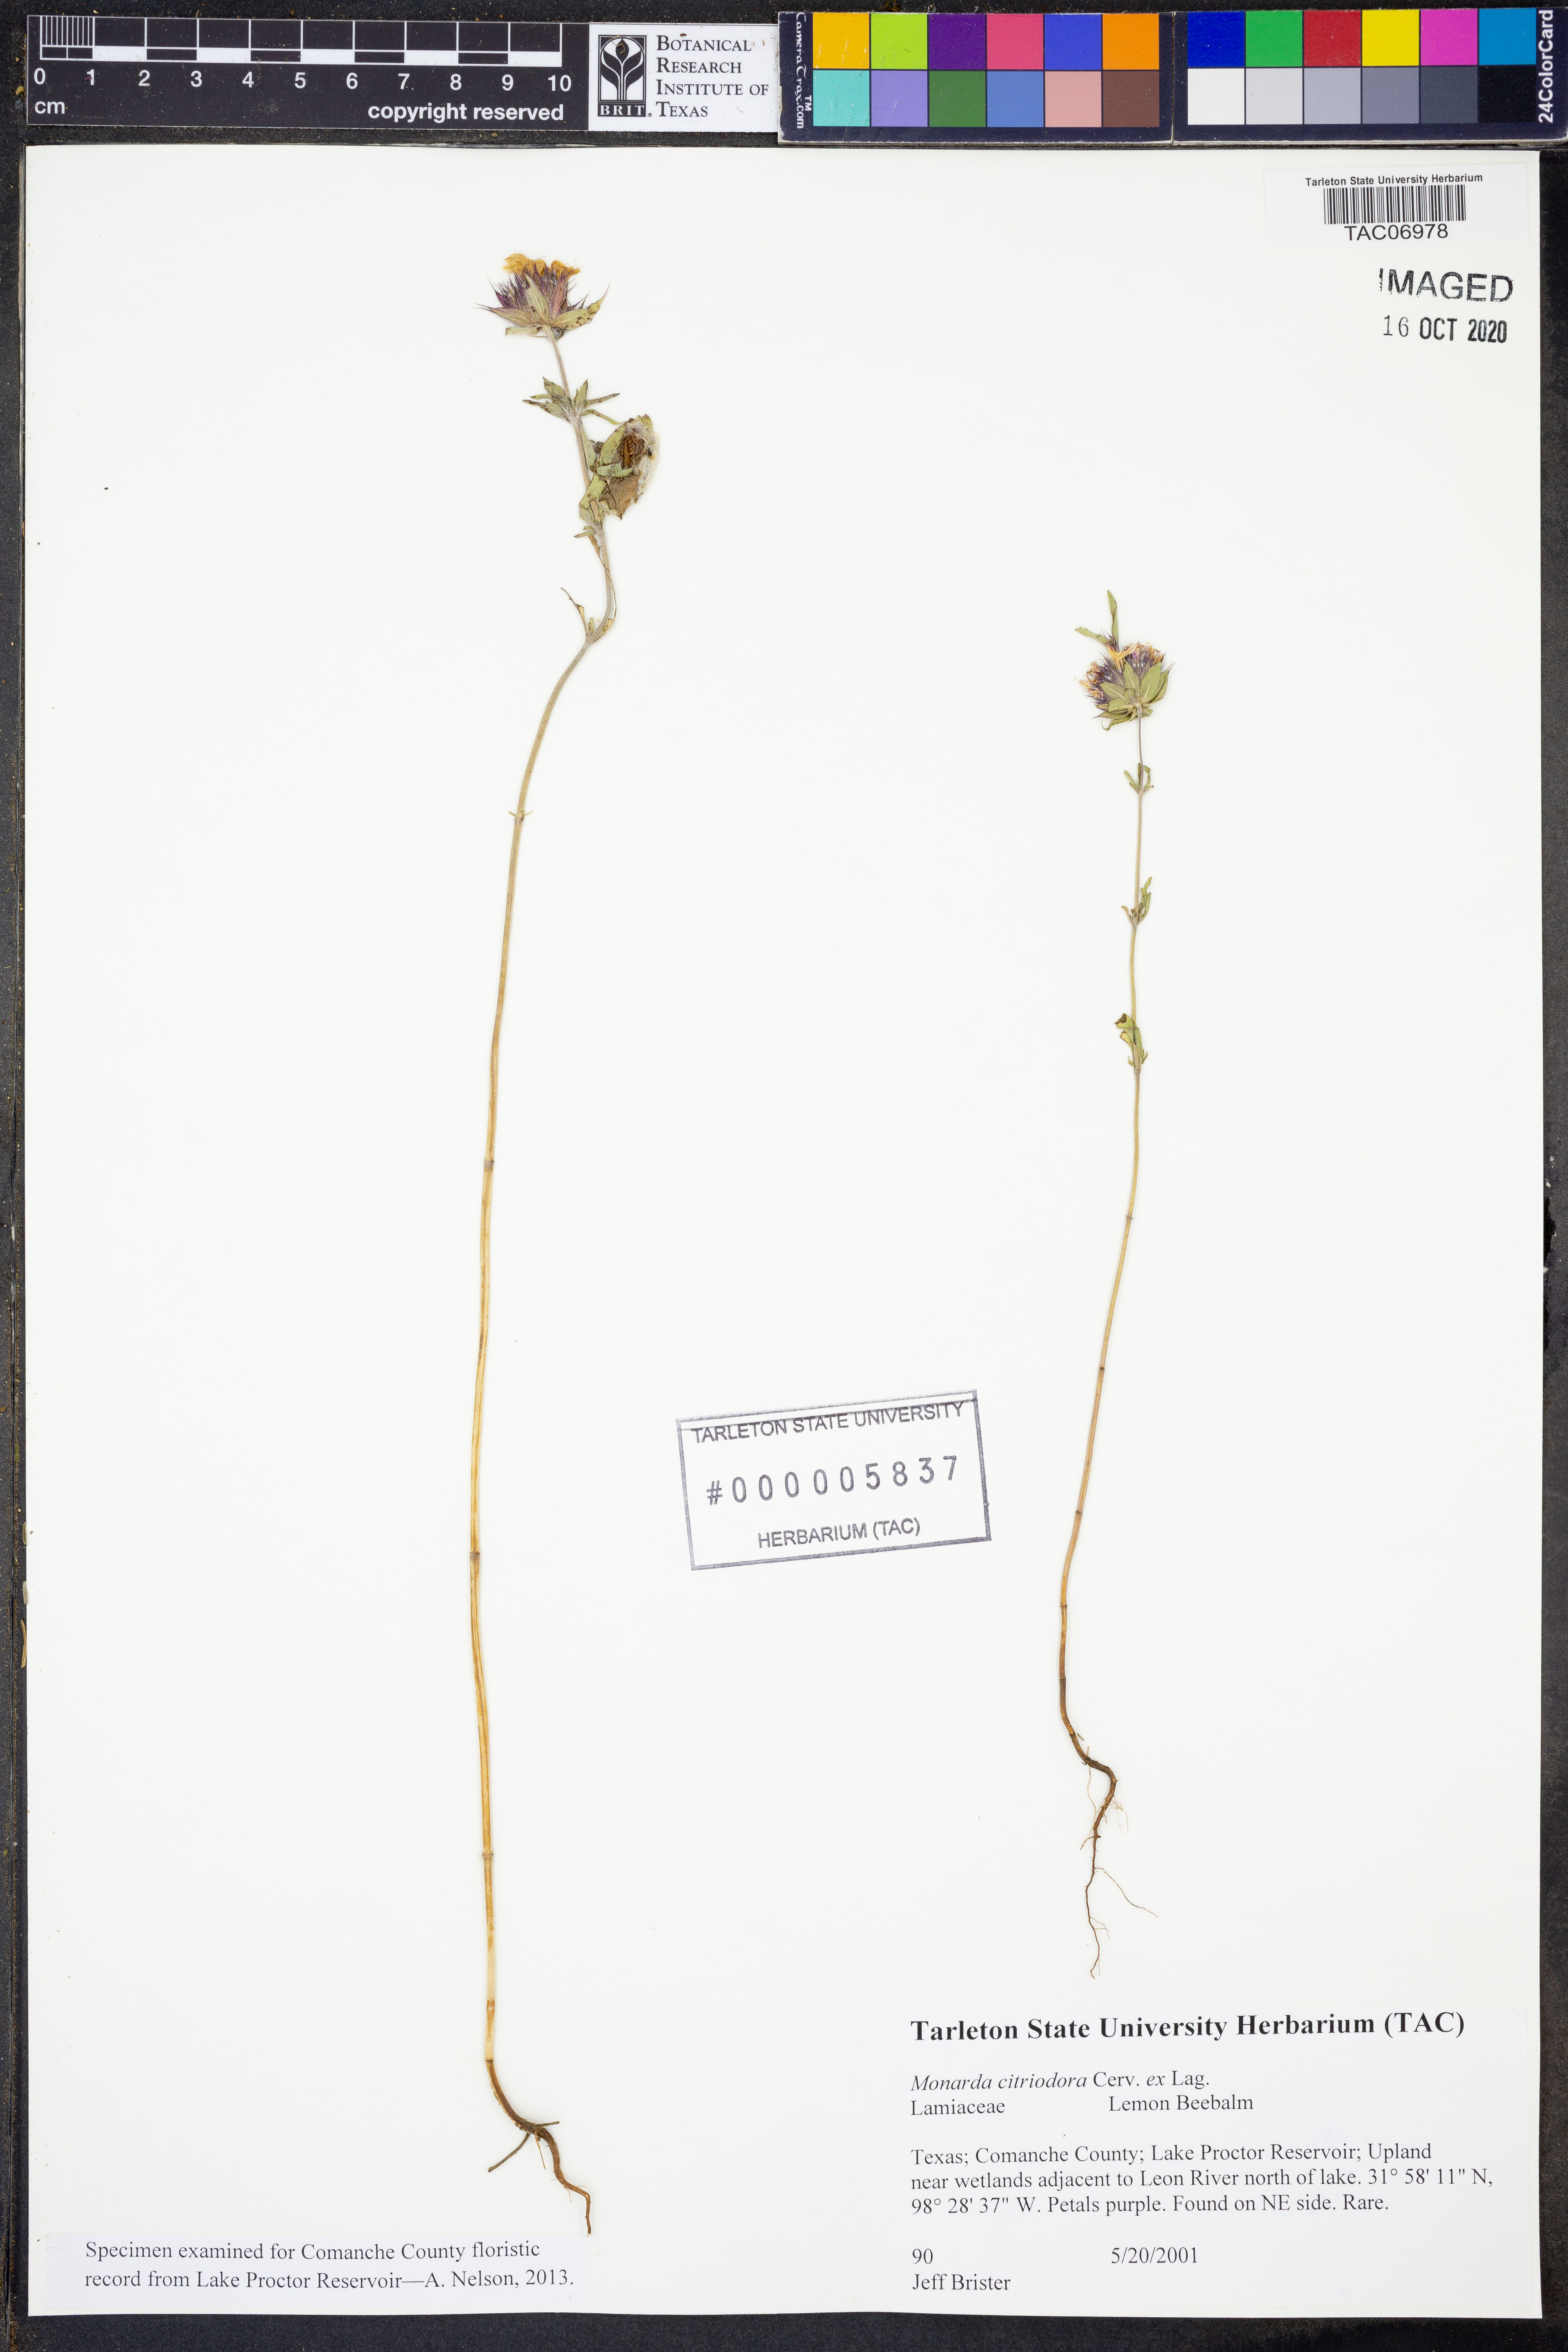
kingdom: Plantae
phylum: Tracheophyta
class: Magnoliopsida
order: Lamiales
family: Lamiaceae
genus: Monarda
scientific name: Monarda citriodora
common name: Lemon beebalm
